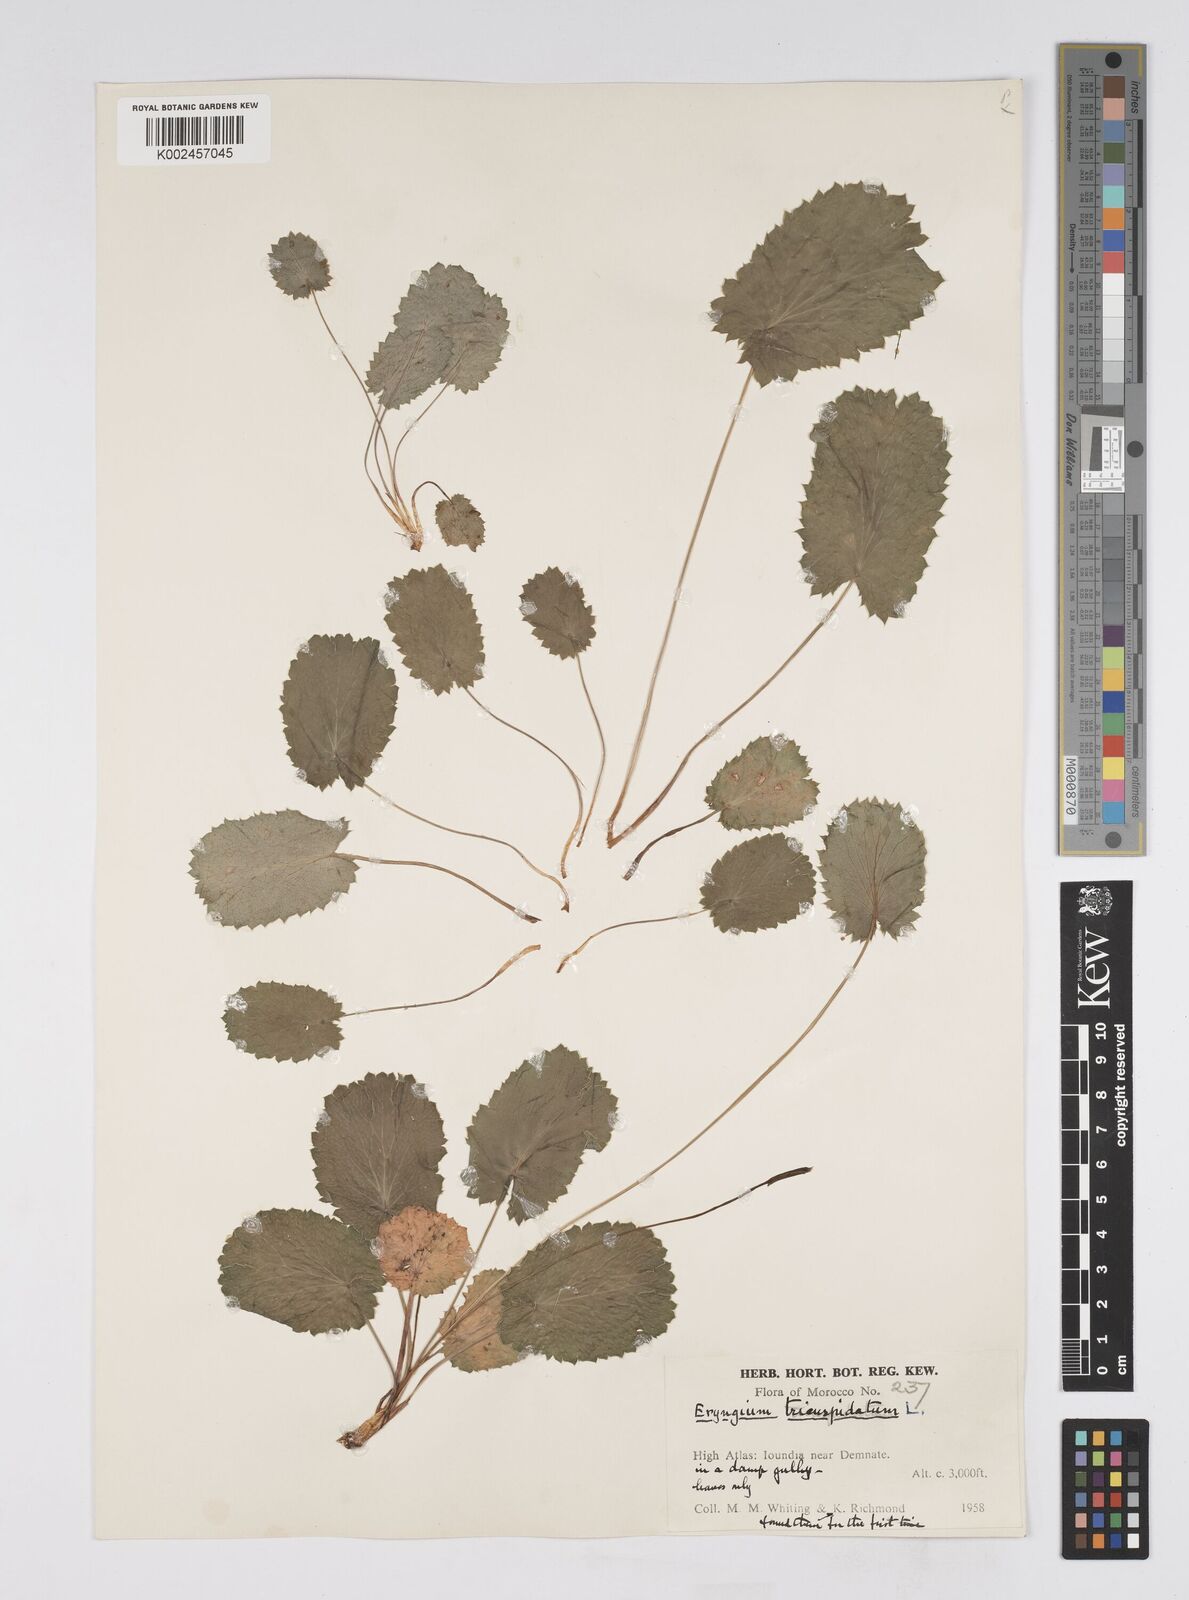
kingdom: Plantae
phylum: Tracheophyta
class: Magnoliopsida
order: Apiales
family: Apiaceae
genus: Eryngium
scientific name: Eryngium tricuspidatum
